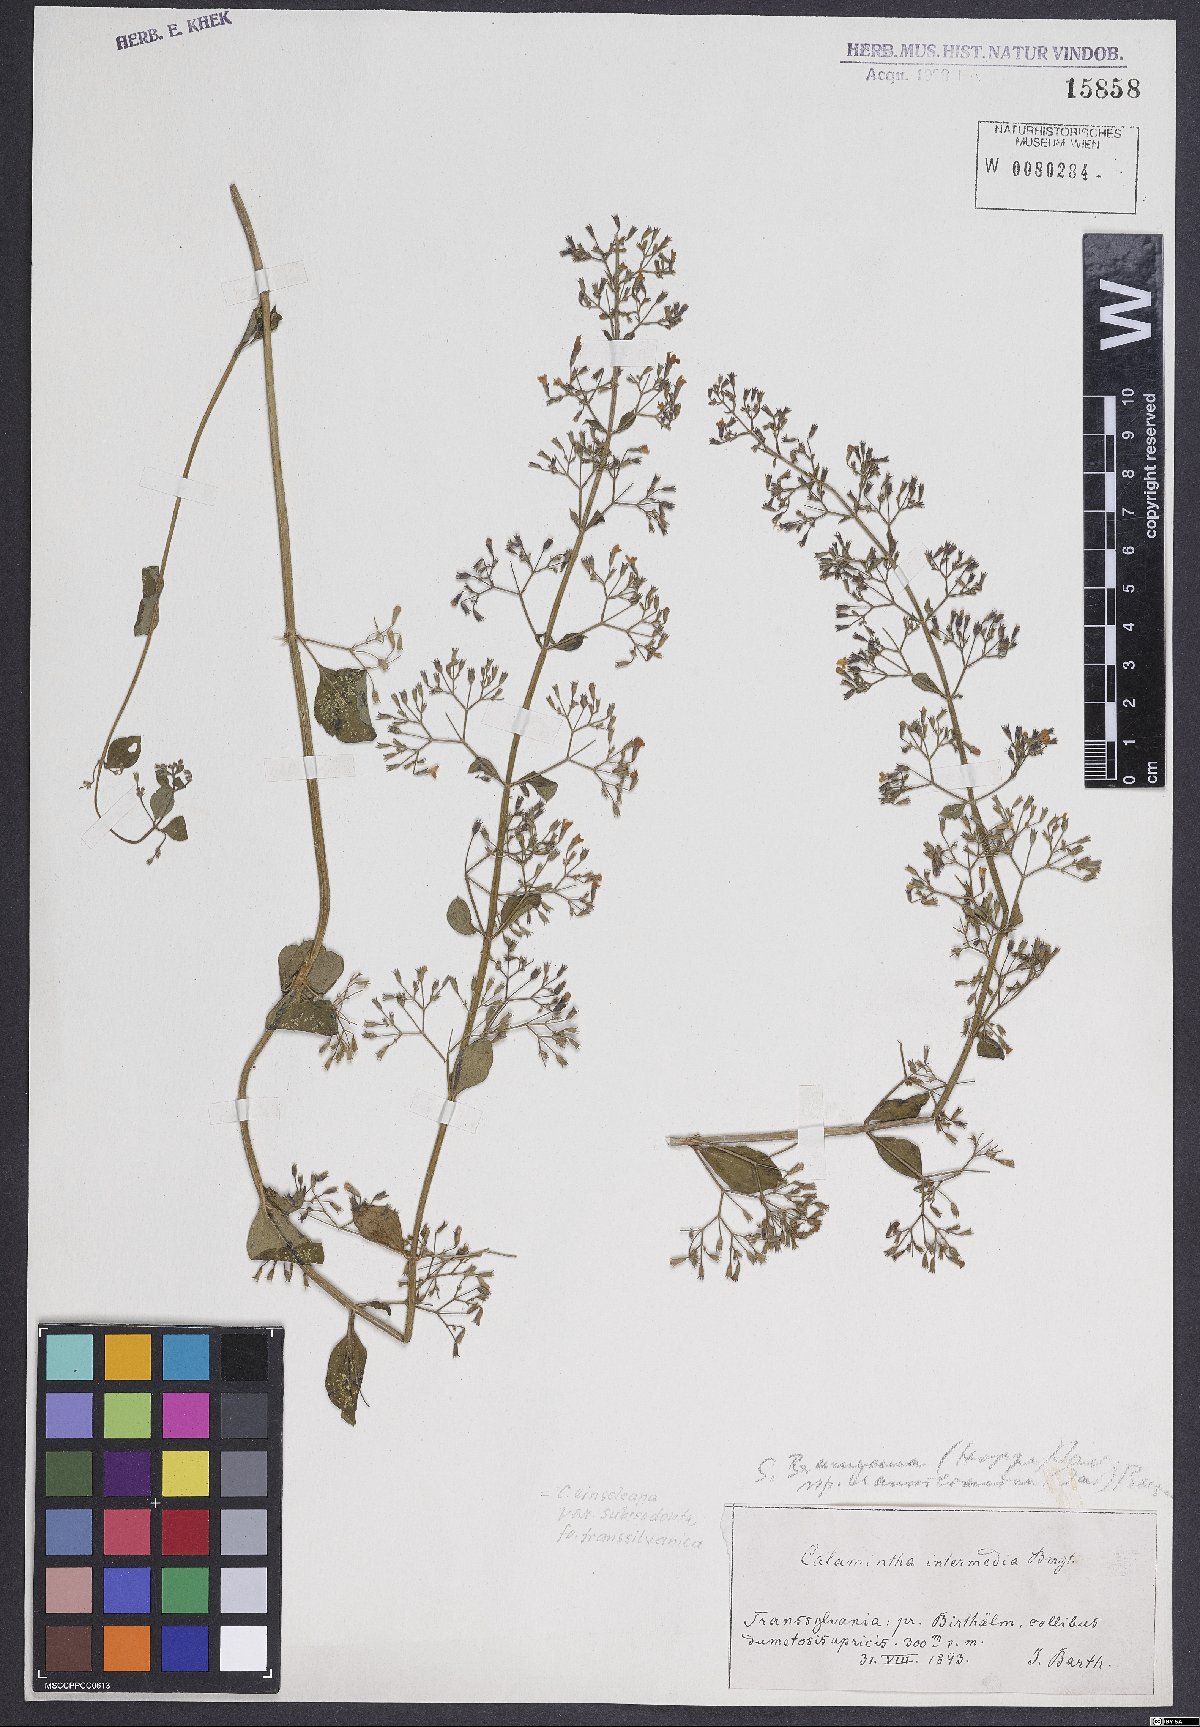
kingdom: Plantae
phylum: Tracheophyta
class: Magnoliopsida
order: Lamiales
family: Lamiaceae
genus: Clinopodium
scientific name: Clinopodium nepeta
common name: Lesser calamint
